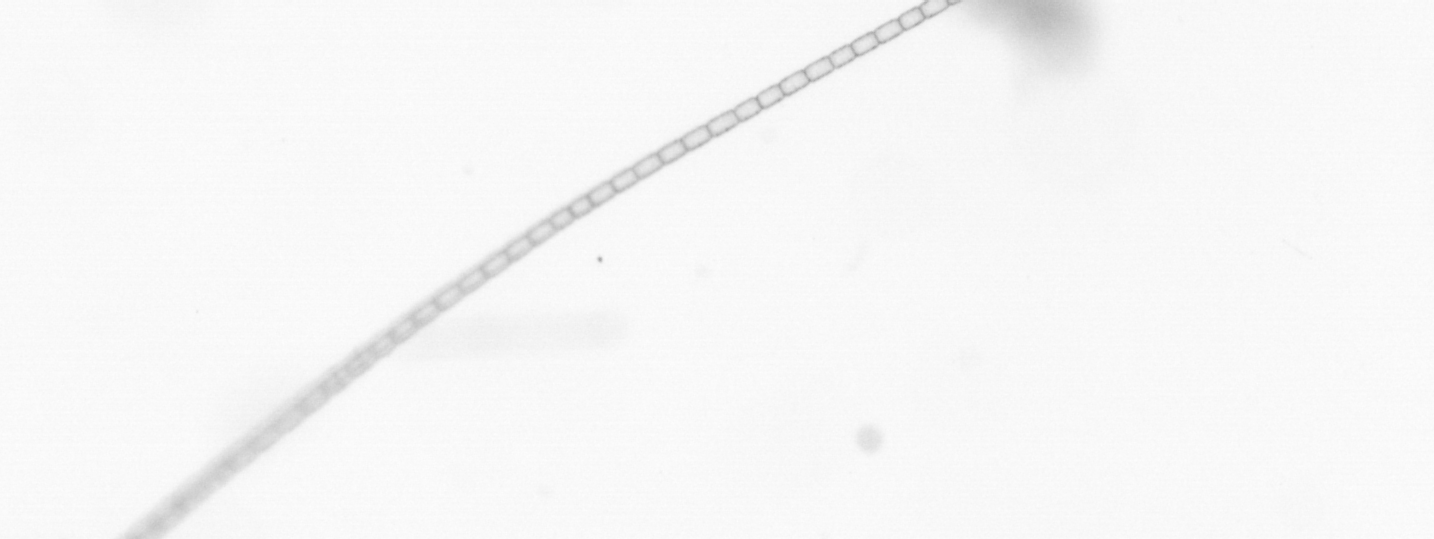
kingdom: Chromista
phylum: Ochrophyta
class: Bacillariophyceae
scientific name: Bacillariophyceae
